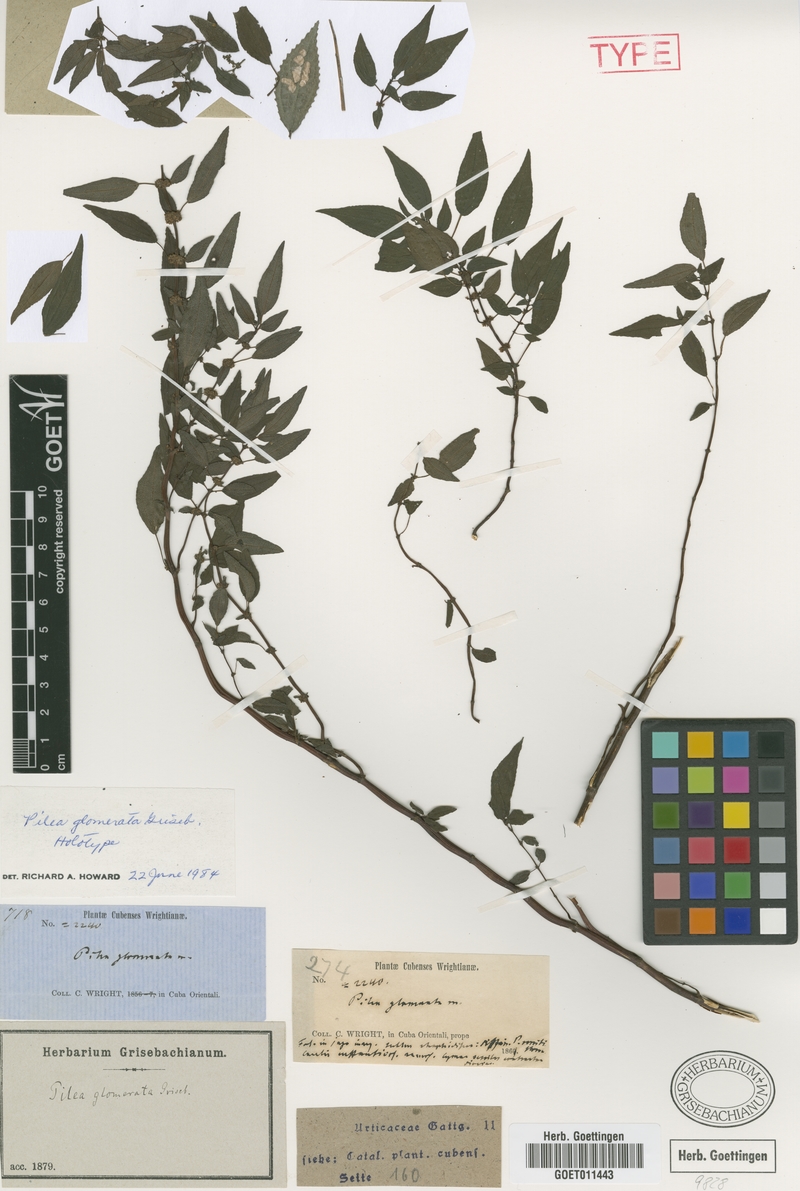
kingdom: Plantae
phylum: Tracheophyta
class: Magnoliopsida
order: Rosales
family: Urticaceae
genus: Pilea
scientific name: Pilea glomerata
